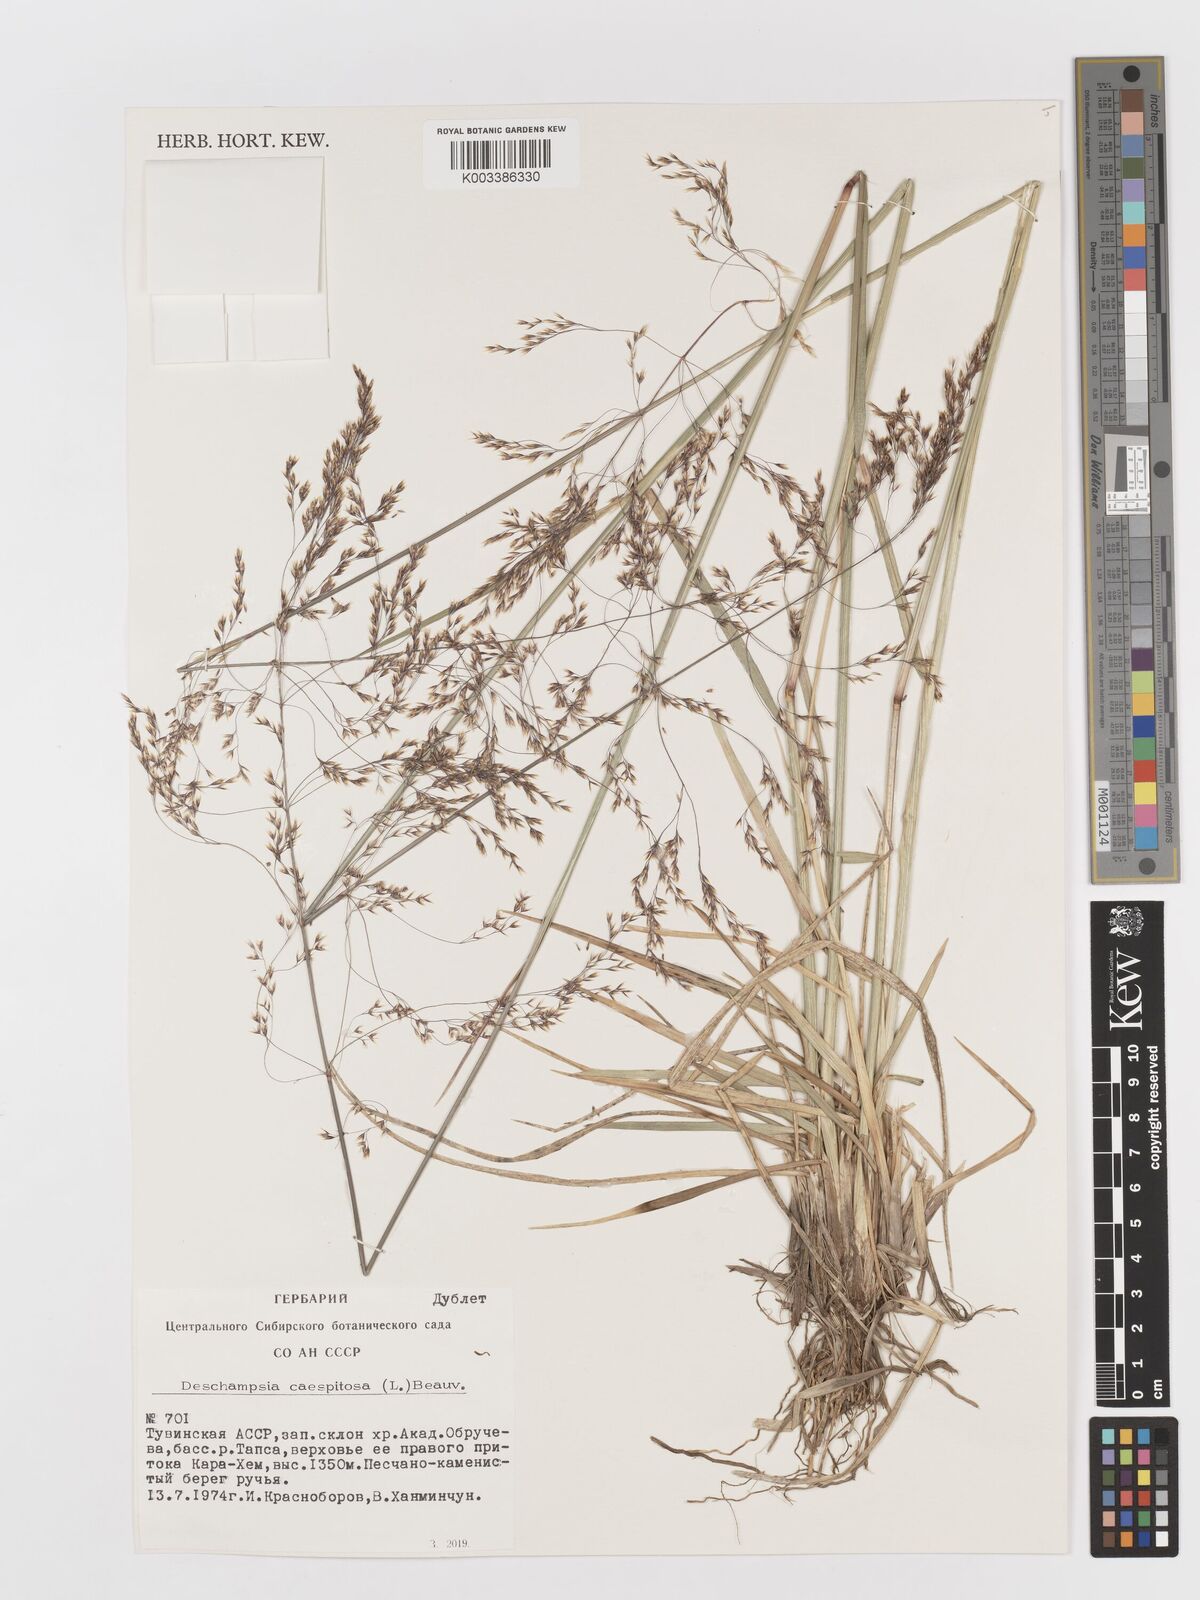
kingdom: Plantae
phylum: Tracheophyta
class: Liliopsida
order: Poales
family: Poaceae
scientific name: Poaceae
